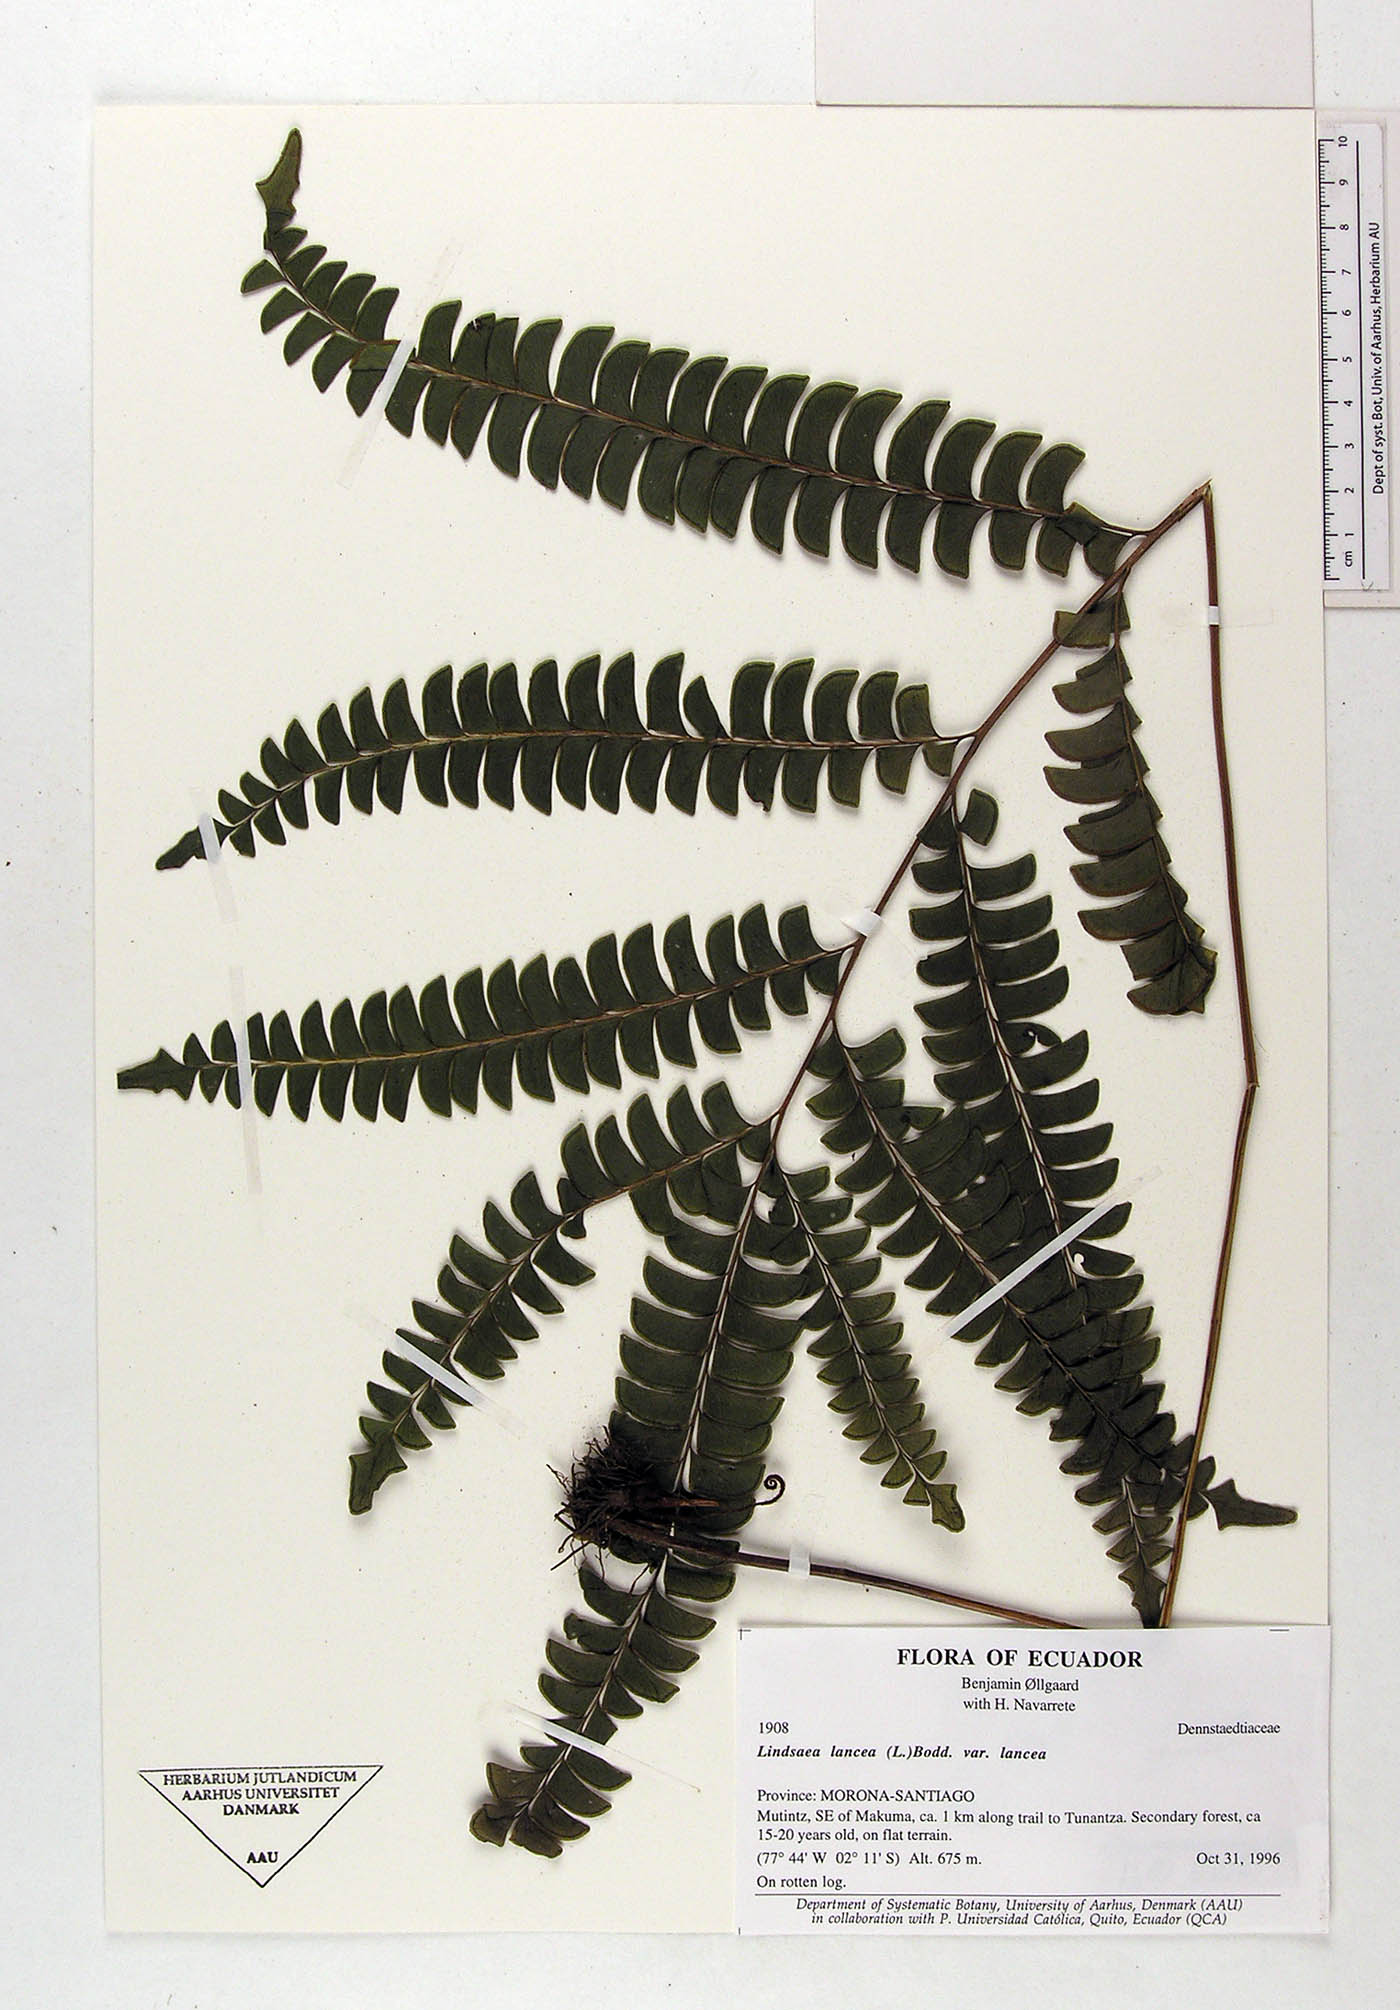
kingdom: Plantae
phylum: Tracheophyta
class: Polypodiopsida
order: Polypodiales
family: Dennstaedtiaceae
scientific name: Dennstaedtiaceae
